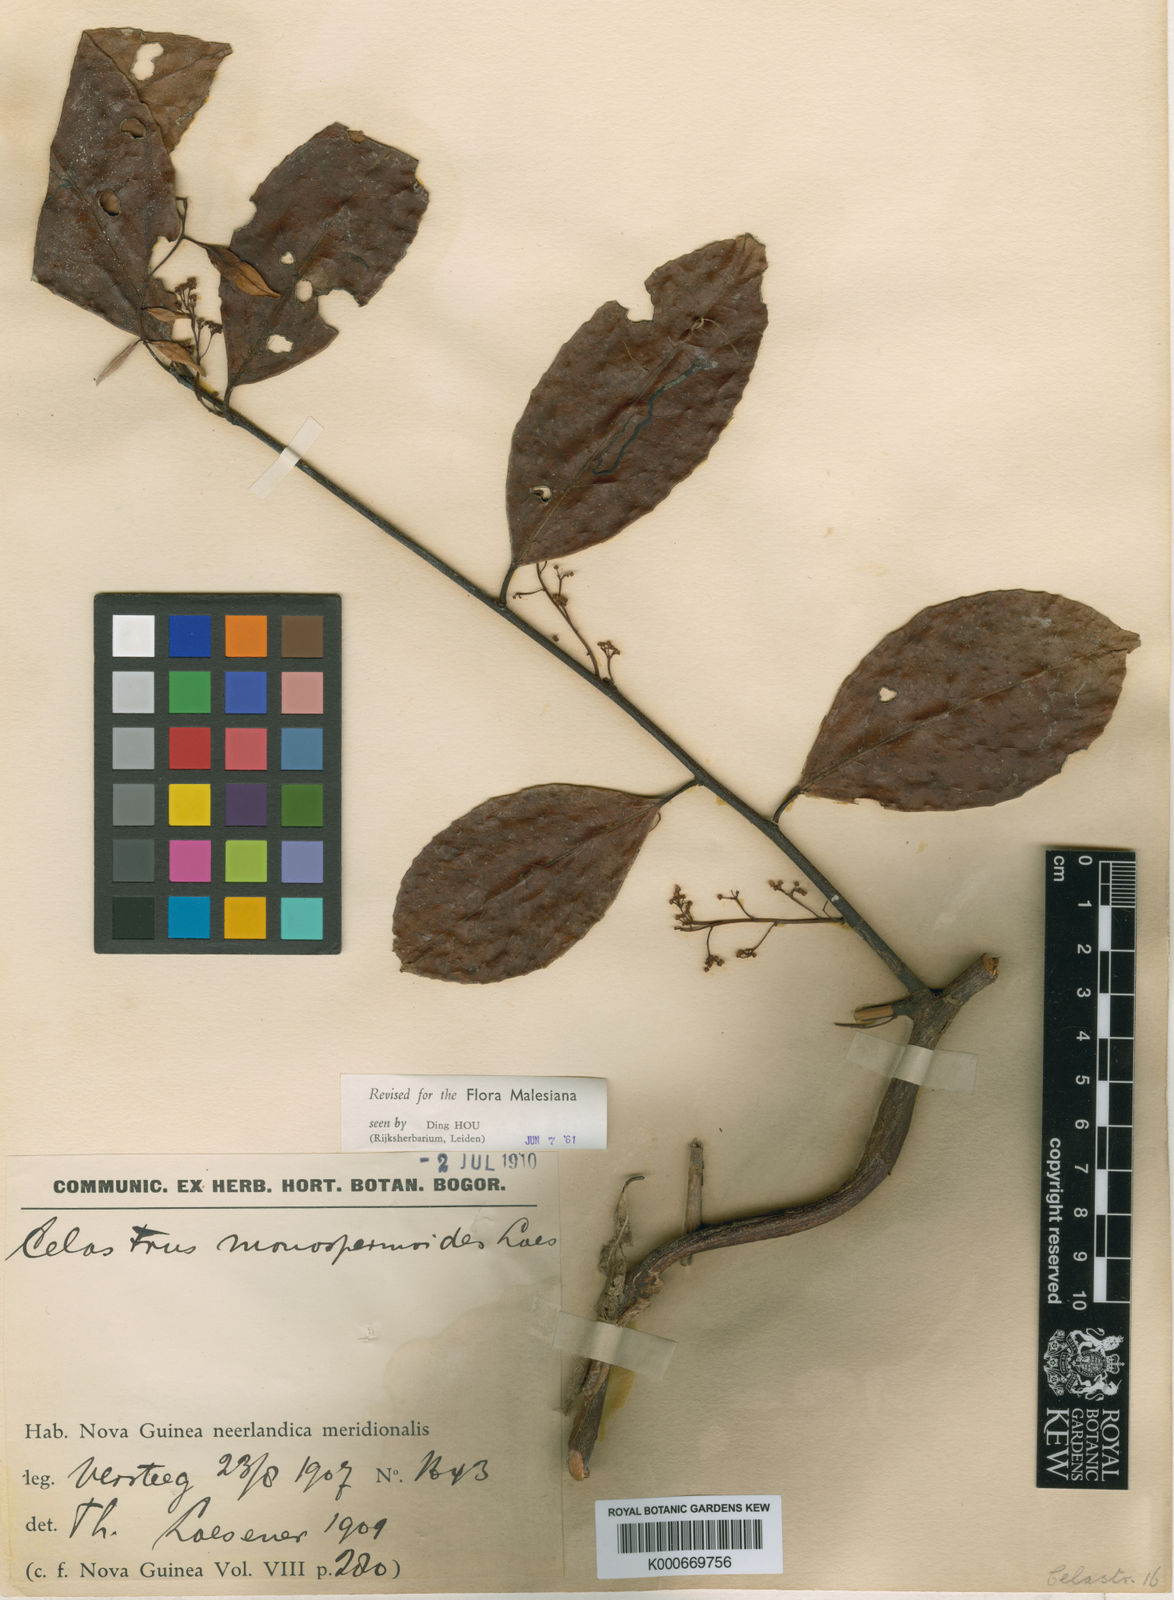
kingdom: Plantae
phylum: Tracheophyta
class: Magnoliopsida
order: Celastrales
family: Celastraceae
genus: Celastrus
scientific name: Celastrus monospermoides
